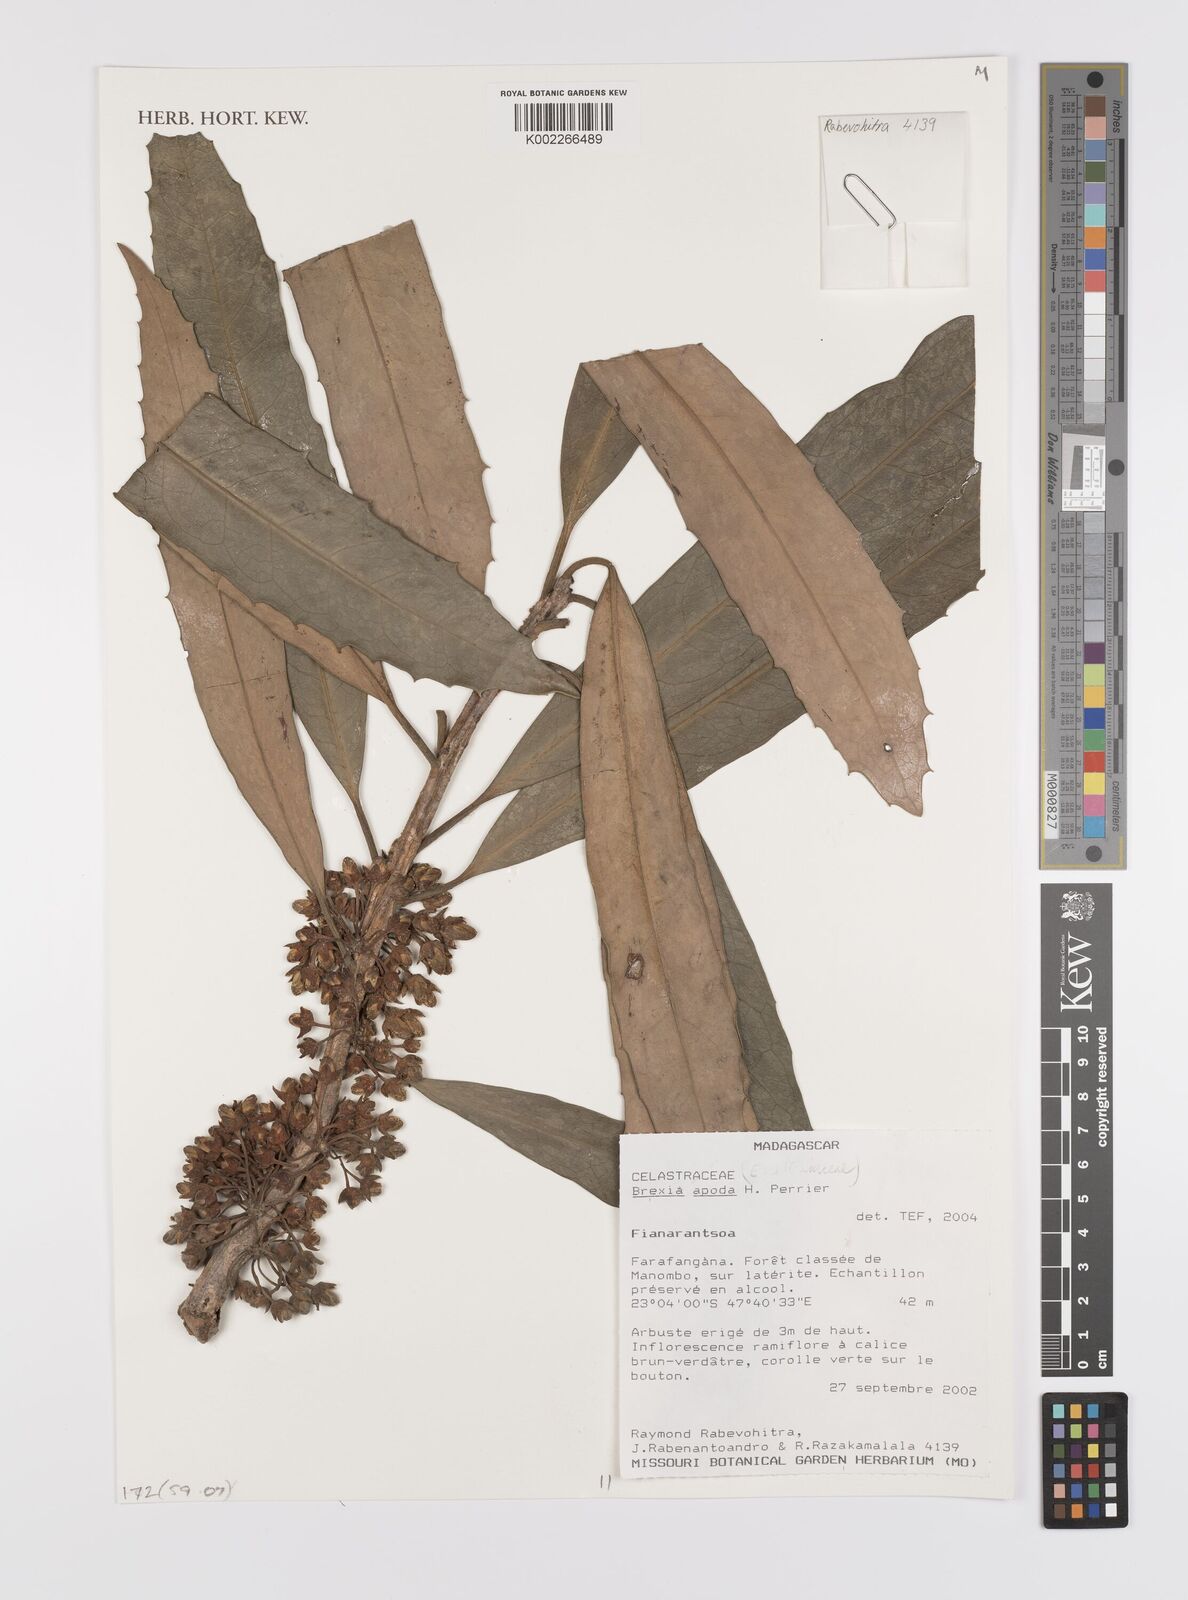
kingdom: Plantae
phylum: Tracheophyta
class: Magnoliopsida
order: Celastrales
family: Celastraceae
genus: Brexia
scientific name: Brexia apoda
